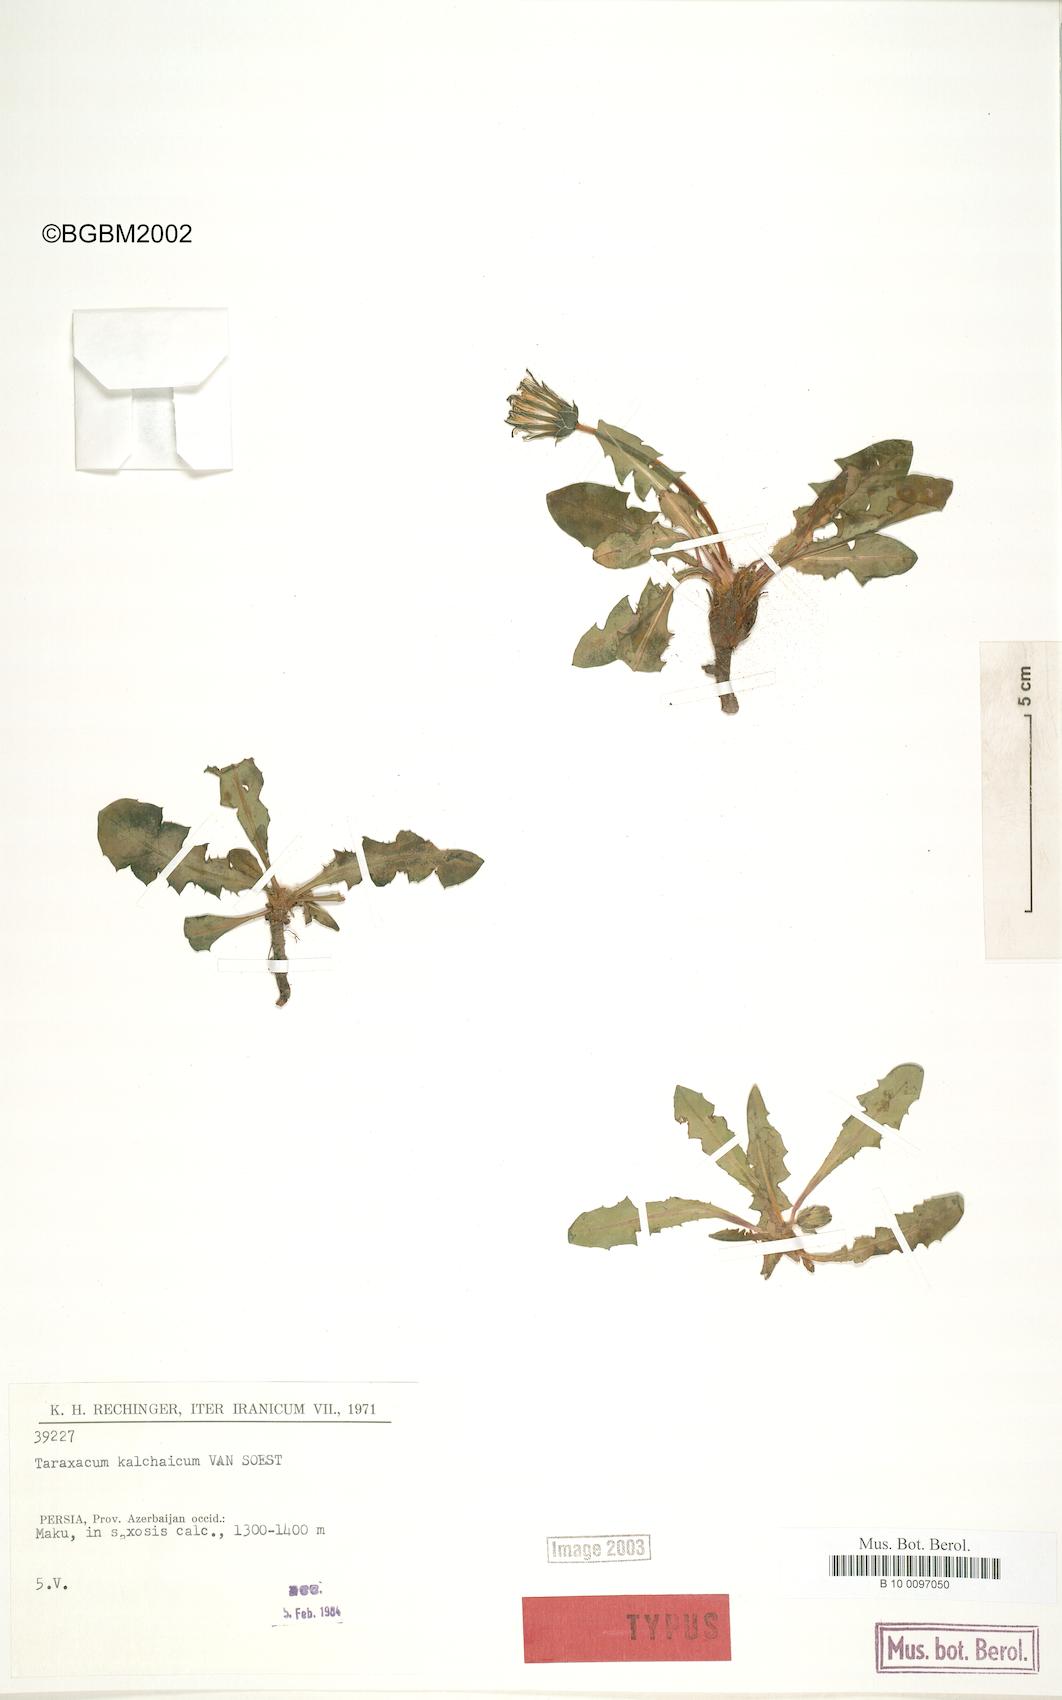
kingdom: Plantae
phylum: Tracheophyta
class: Magnoliopsida
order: Asterales
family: Asteraceae
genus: Taraxacum
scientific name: Taraxacum kalchainum
